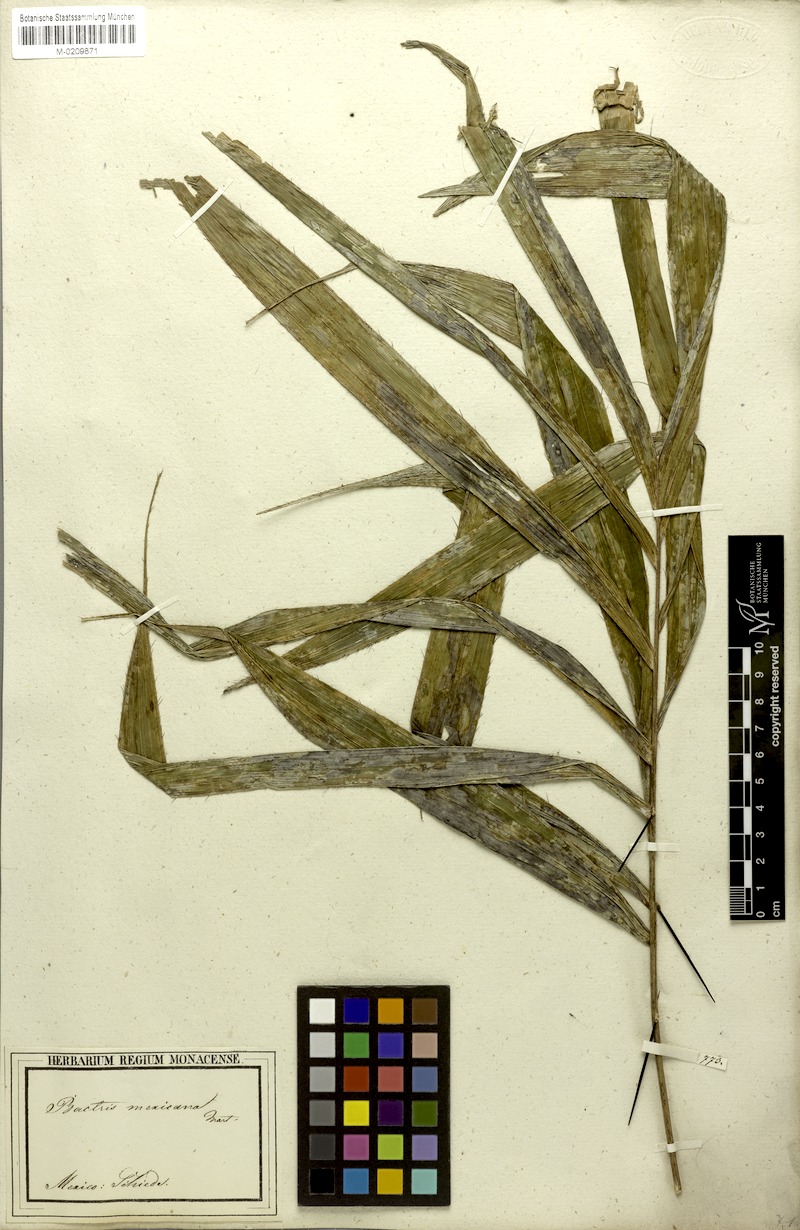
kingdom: Plantae
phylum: Tracheophyta
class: Liliopsida
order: Arecales
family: Arecaceae
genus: Bactris
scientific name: Bactris mexicana
